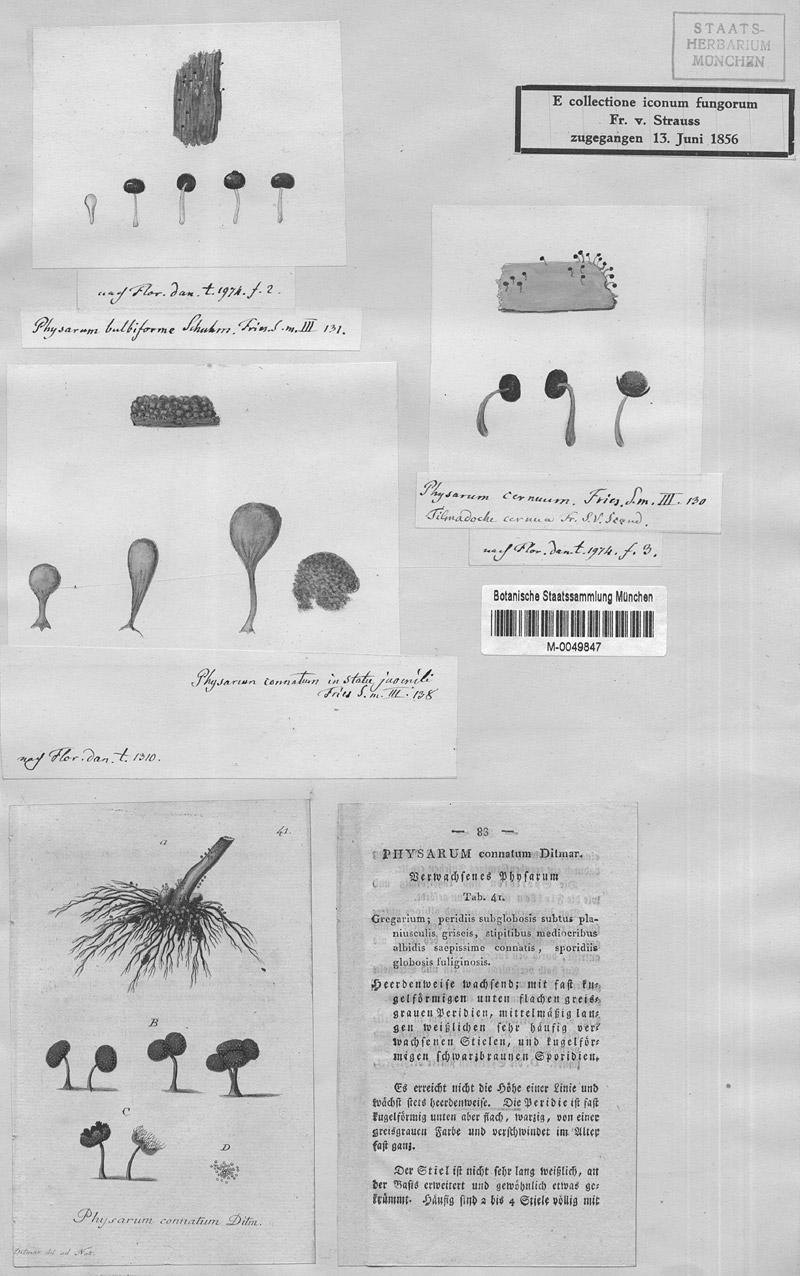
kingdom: Protozoa
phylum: Mycetozoa
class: Myxomycetes
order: Physarales
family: Physaraceae
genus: Physarum
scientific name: Physarum album
